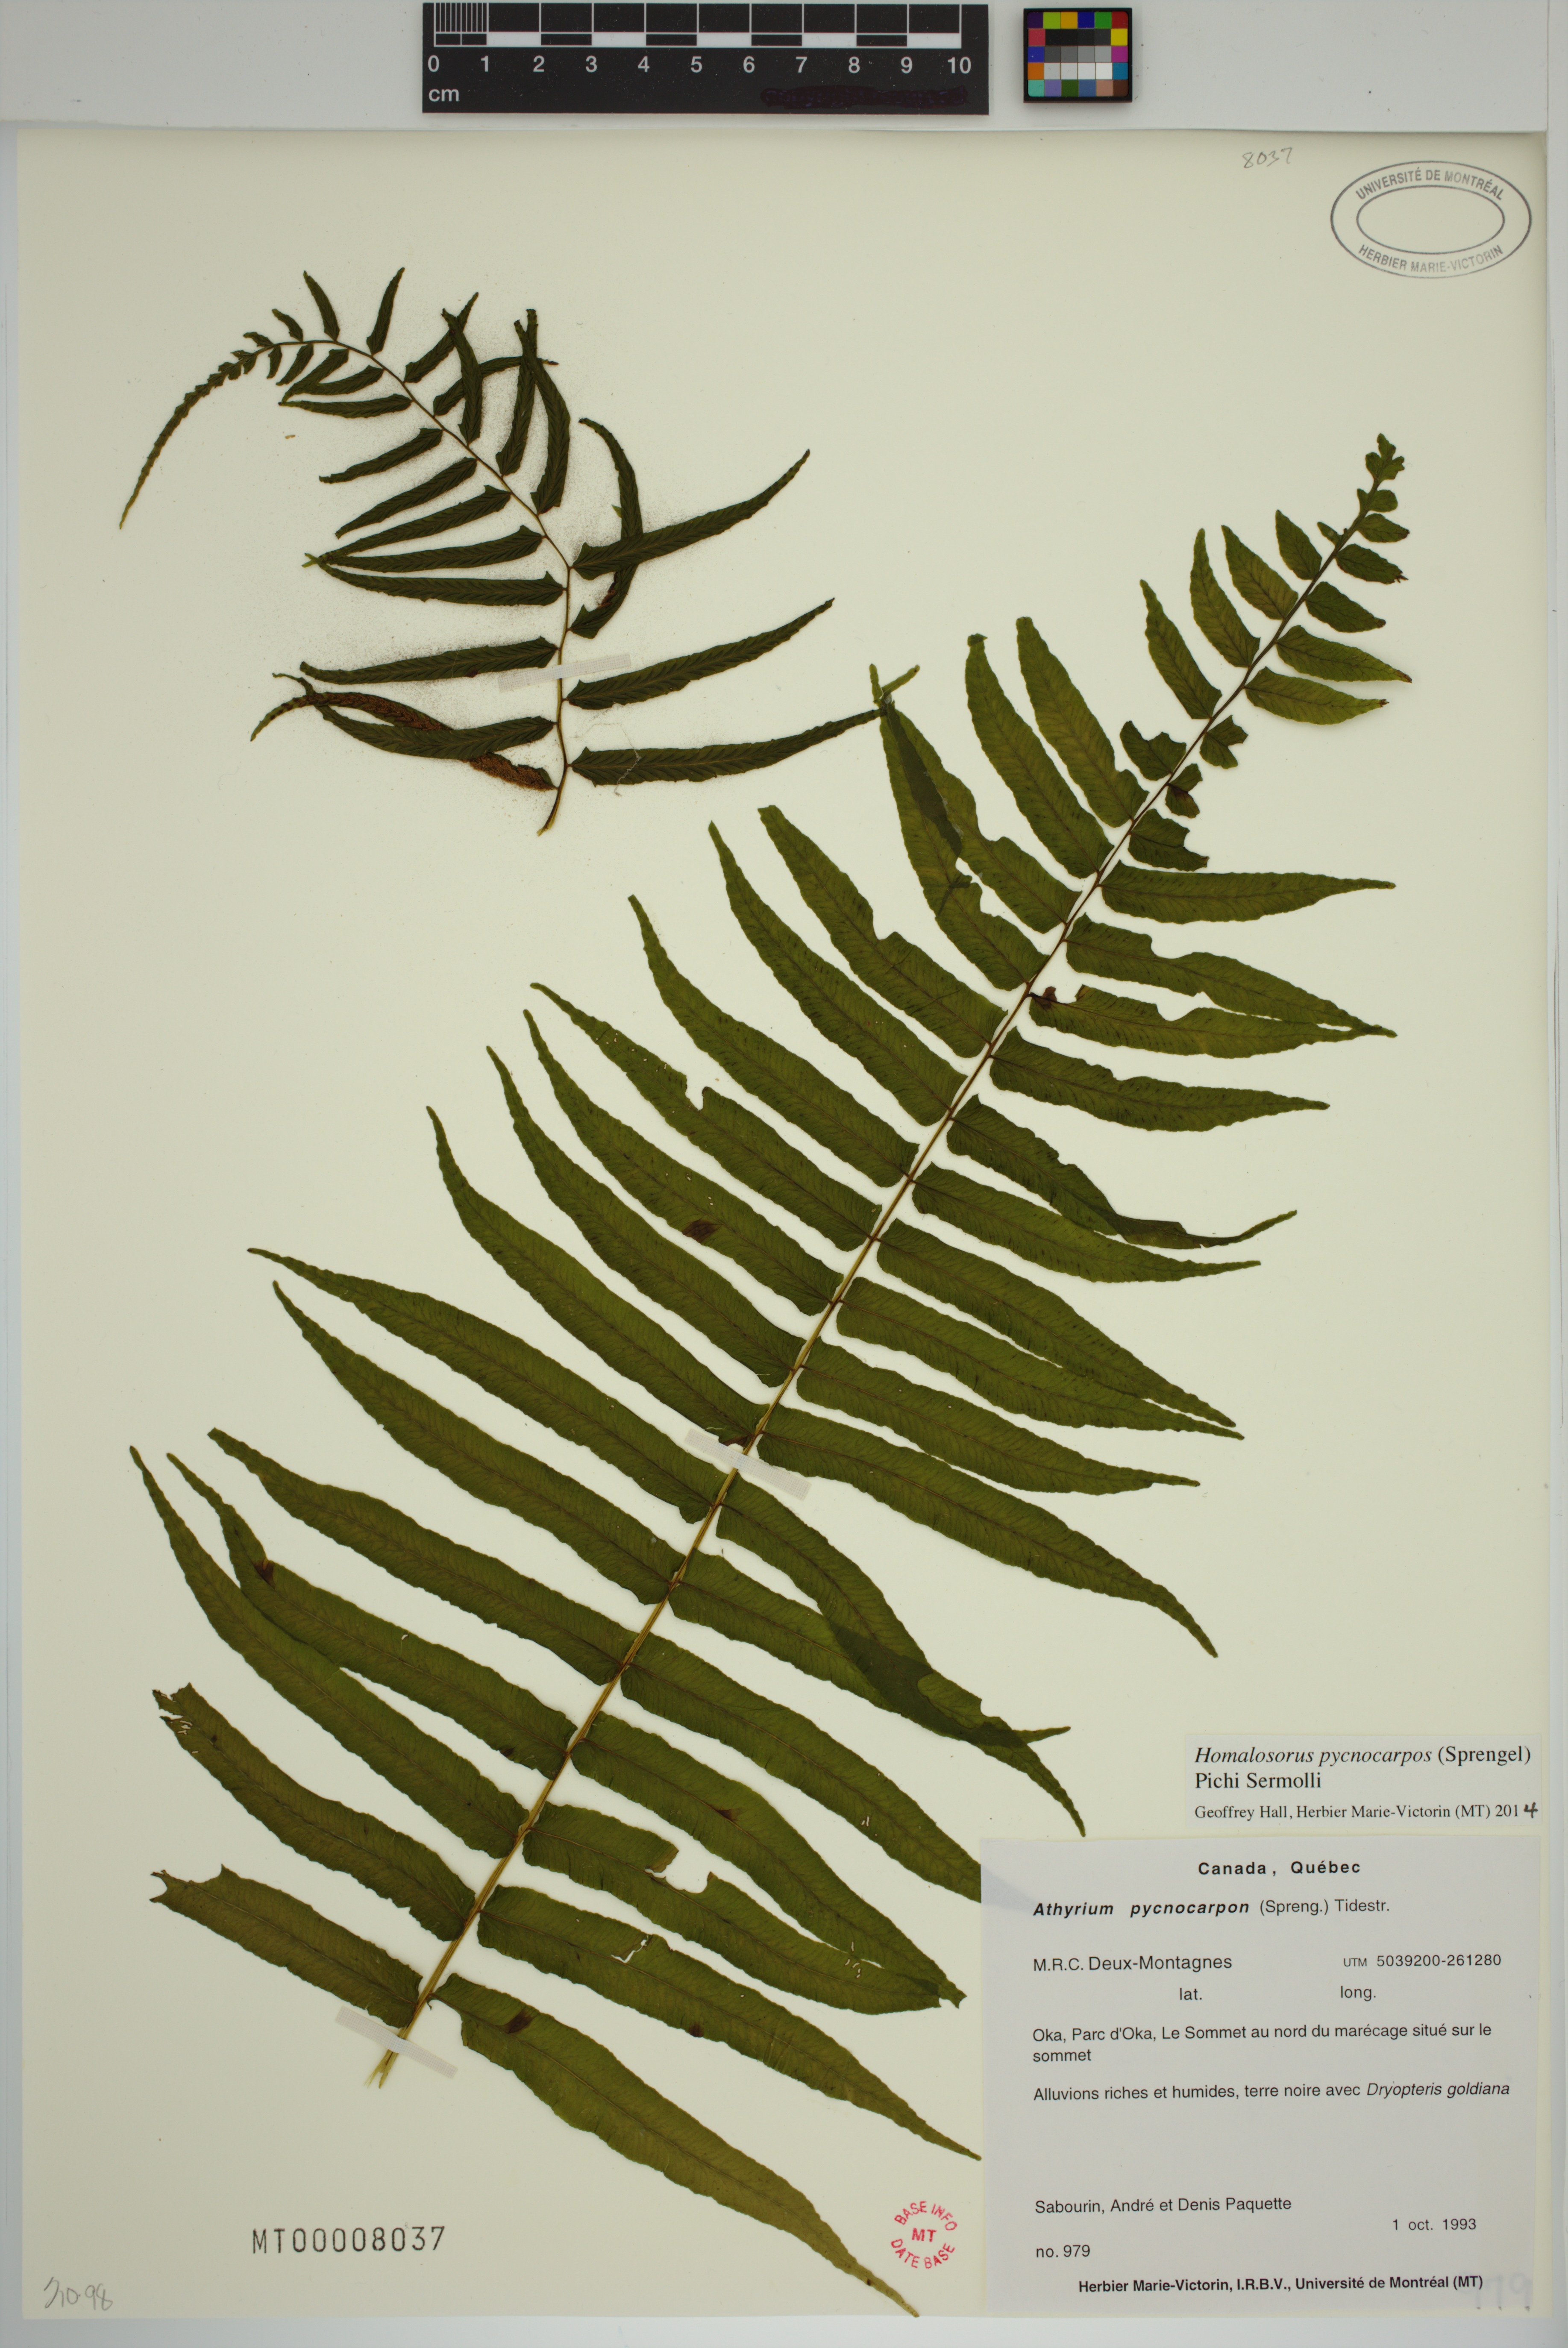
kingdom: Plantae
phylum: Tracheophyta
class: Polypodiopsida
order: Polypodiales
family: Diplaziopsidaceae
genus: Homalosorus
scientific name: Homalosorus pycnocarpos
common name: Glade fern
